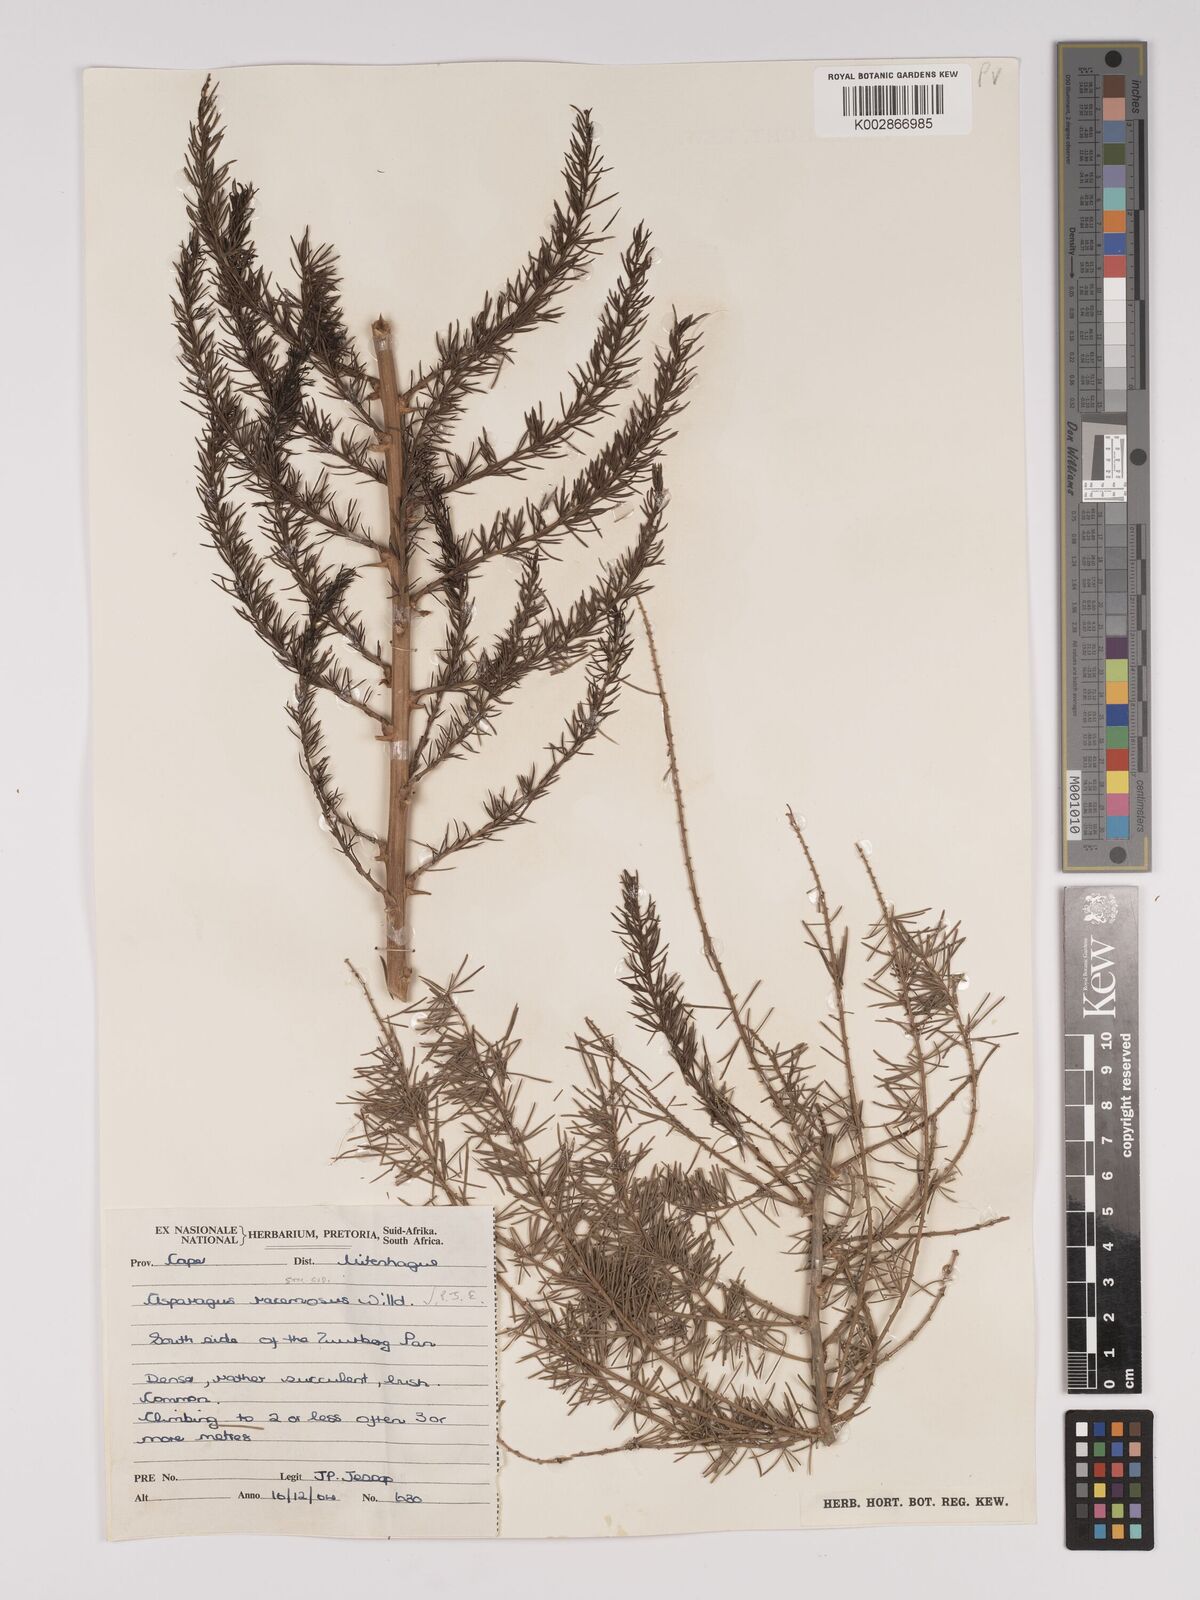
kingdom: Plantae
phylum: Tracheophyta
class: Liliopsida
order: Asparagales
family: Asparagaceae
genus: Asparagus
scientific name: Asparagus racemosus
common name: Asparagus-fern
